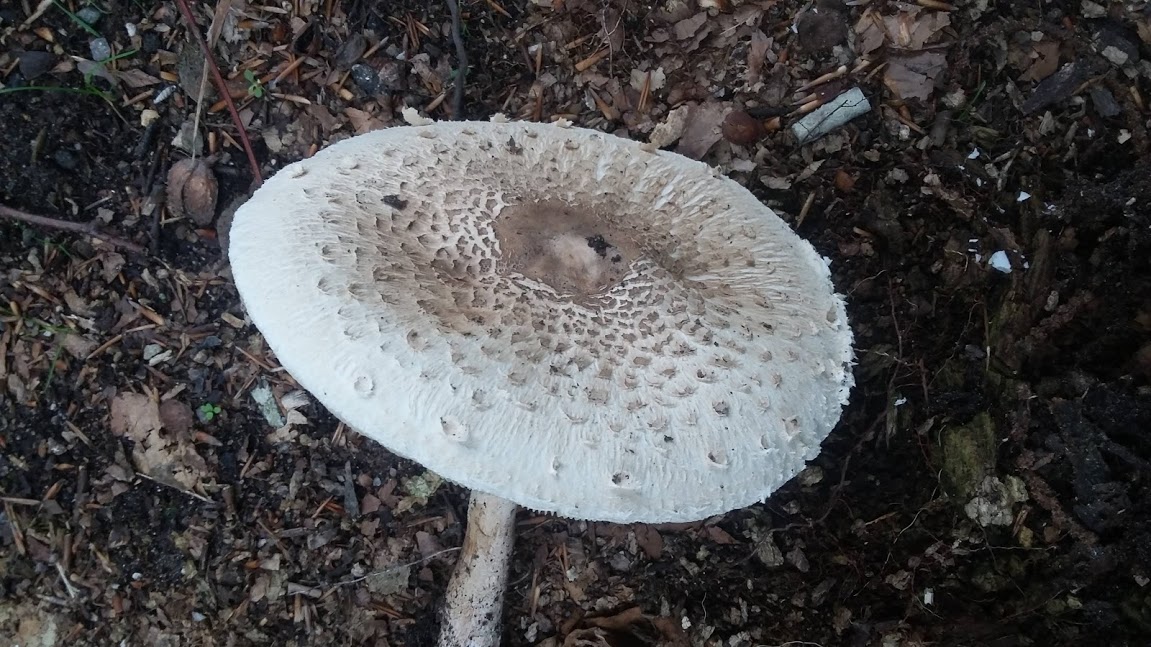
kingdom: Fungi
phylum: Basidiomycota
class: Agaricomycetes
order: Agaricales
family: Agaricaceae
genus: Macrolepiota
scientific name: Macrolepiota
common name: kæmpeparasolhat
